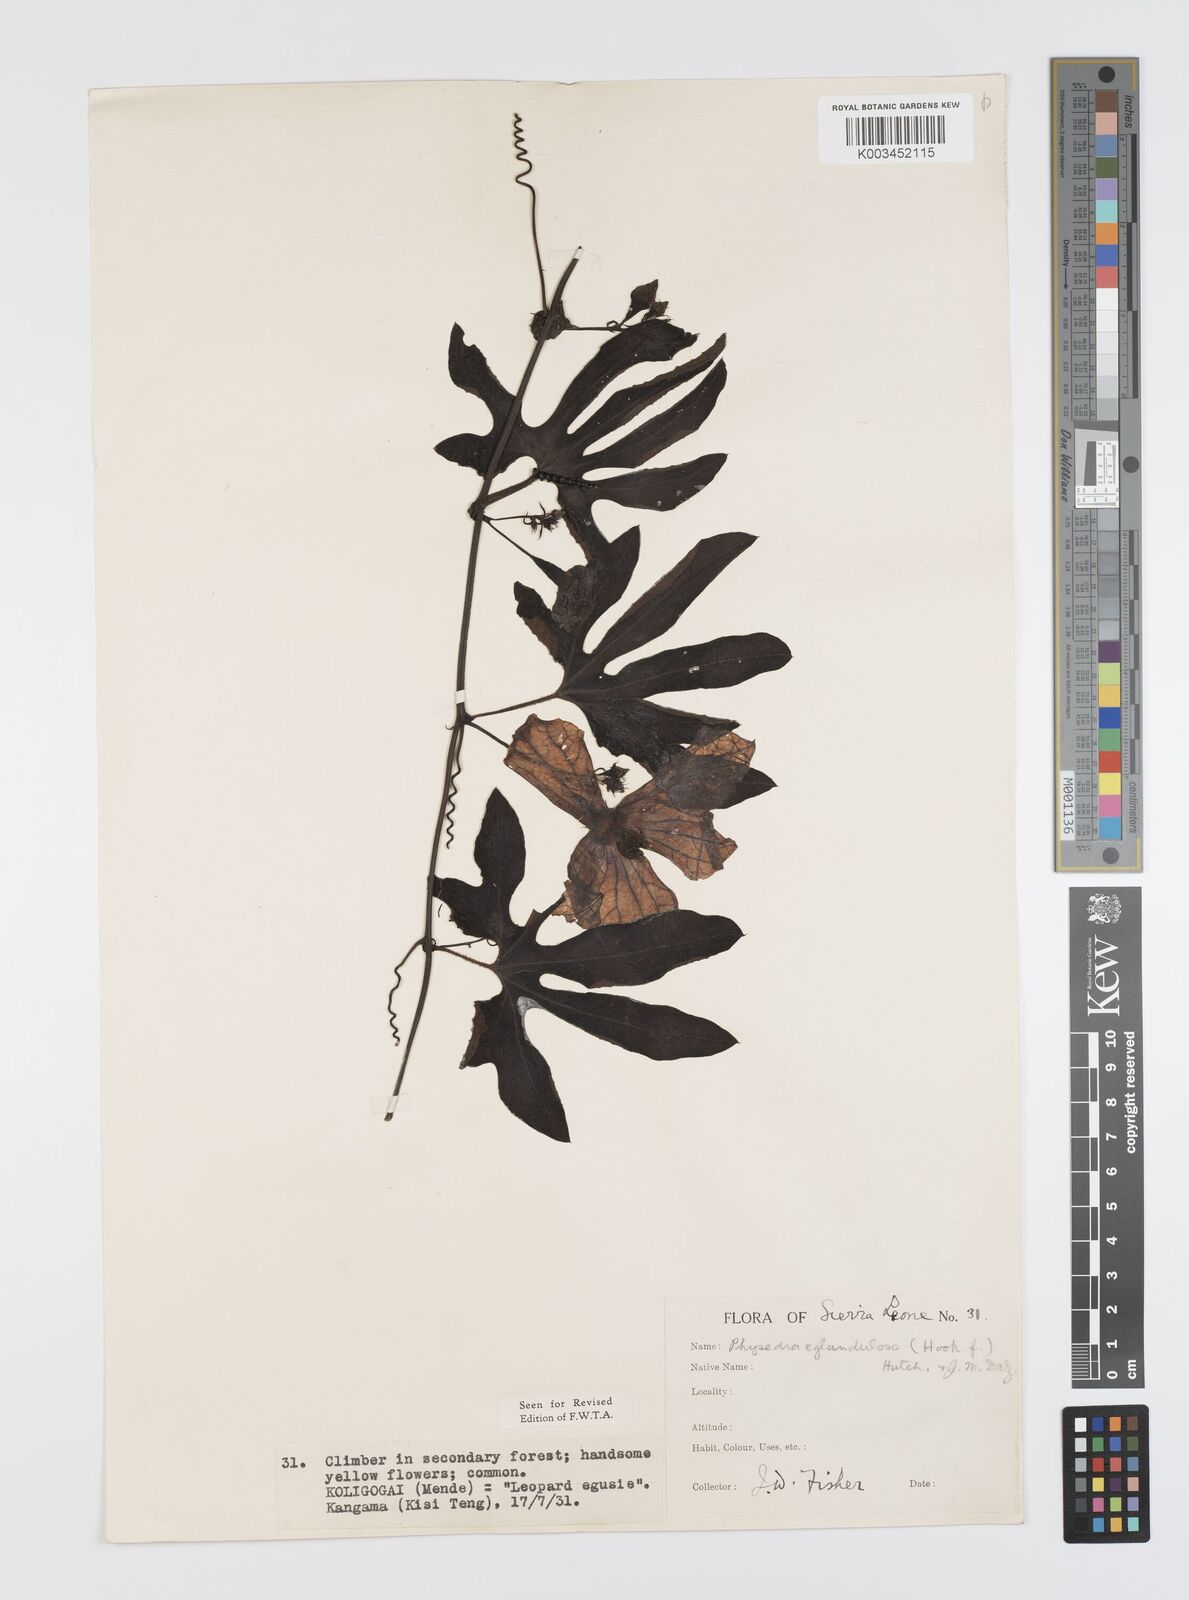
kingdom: Plantae
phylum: Tracheophyta
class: Magnoliopsida
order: Cucurbitales
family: Cucurbitaceae
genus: Ruthalicia
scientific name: Ruthalicia eglandulosa
